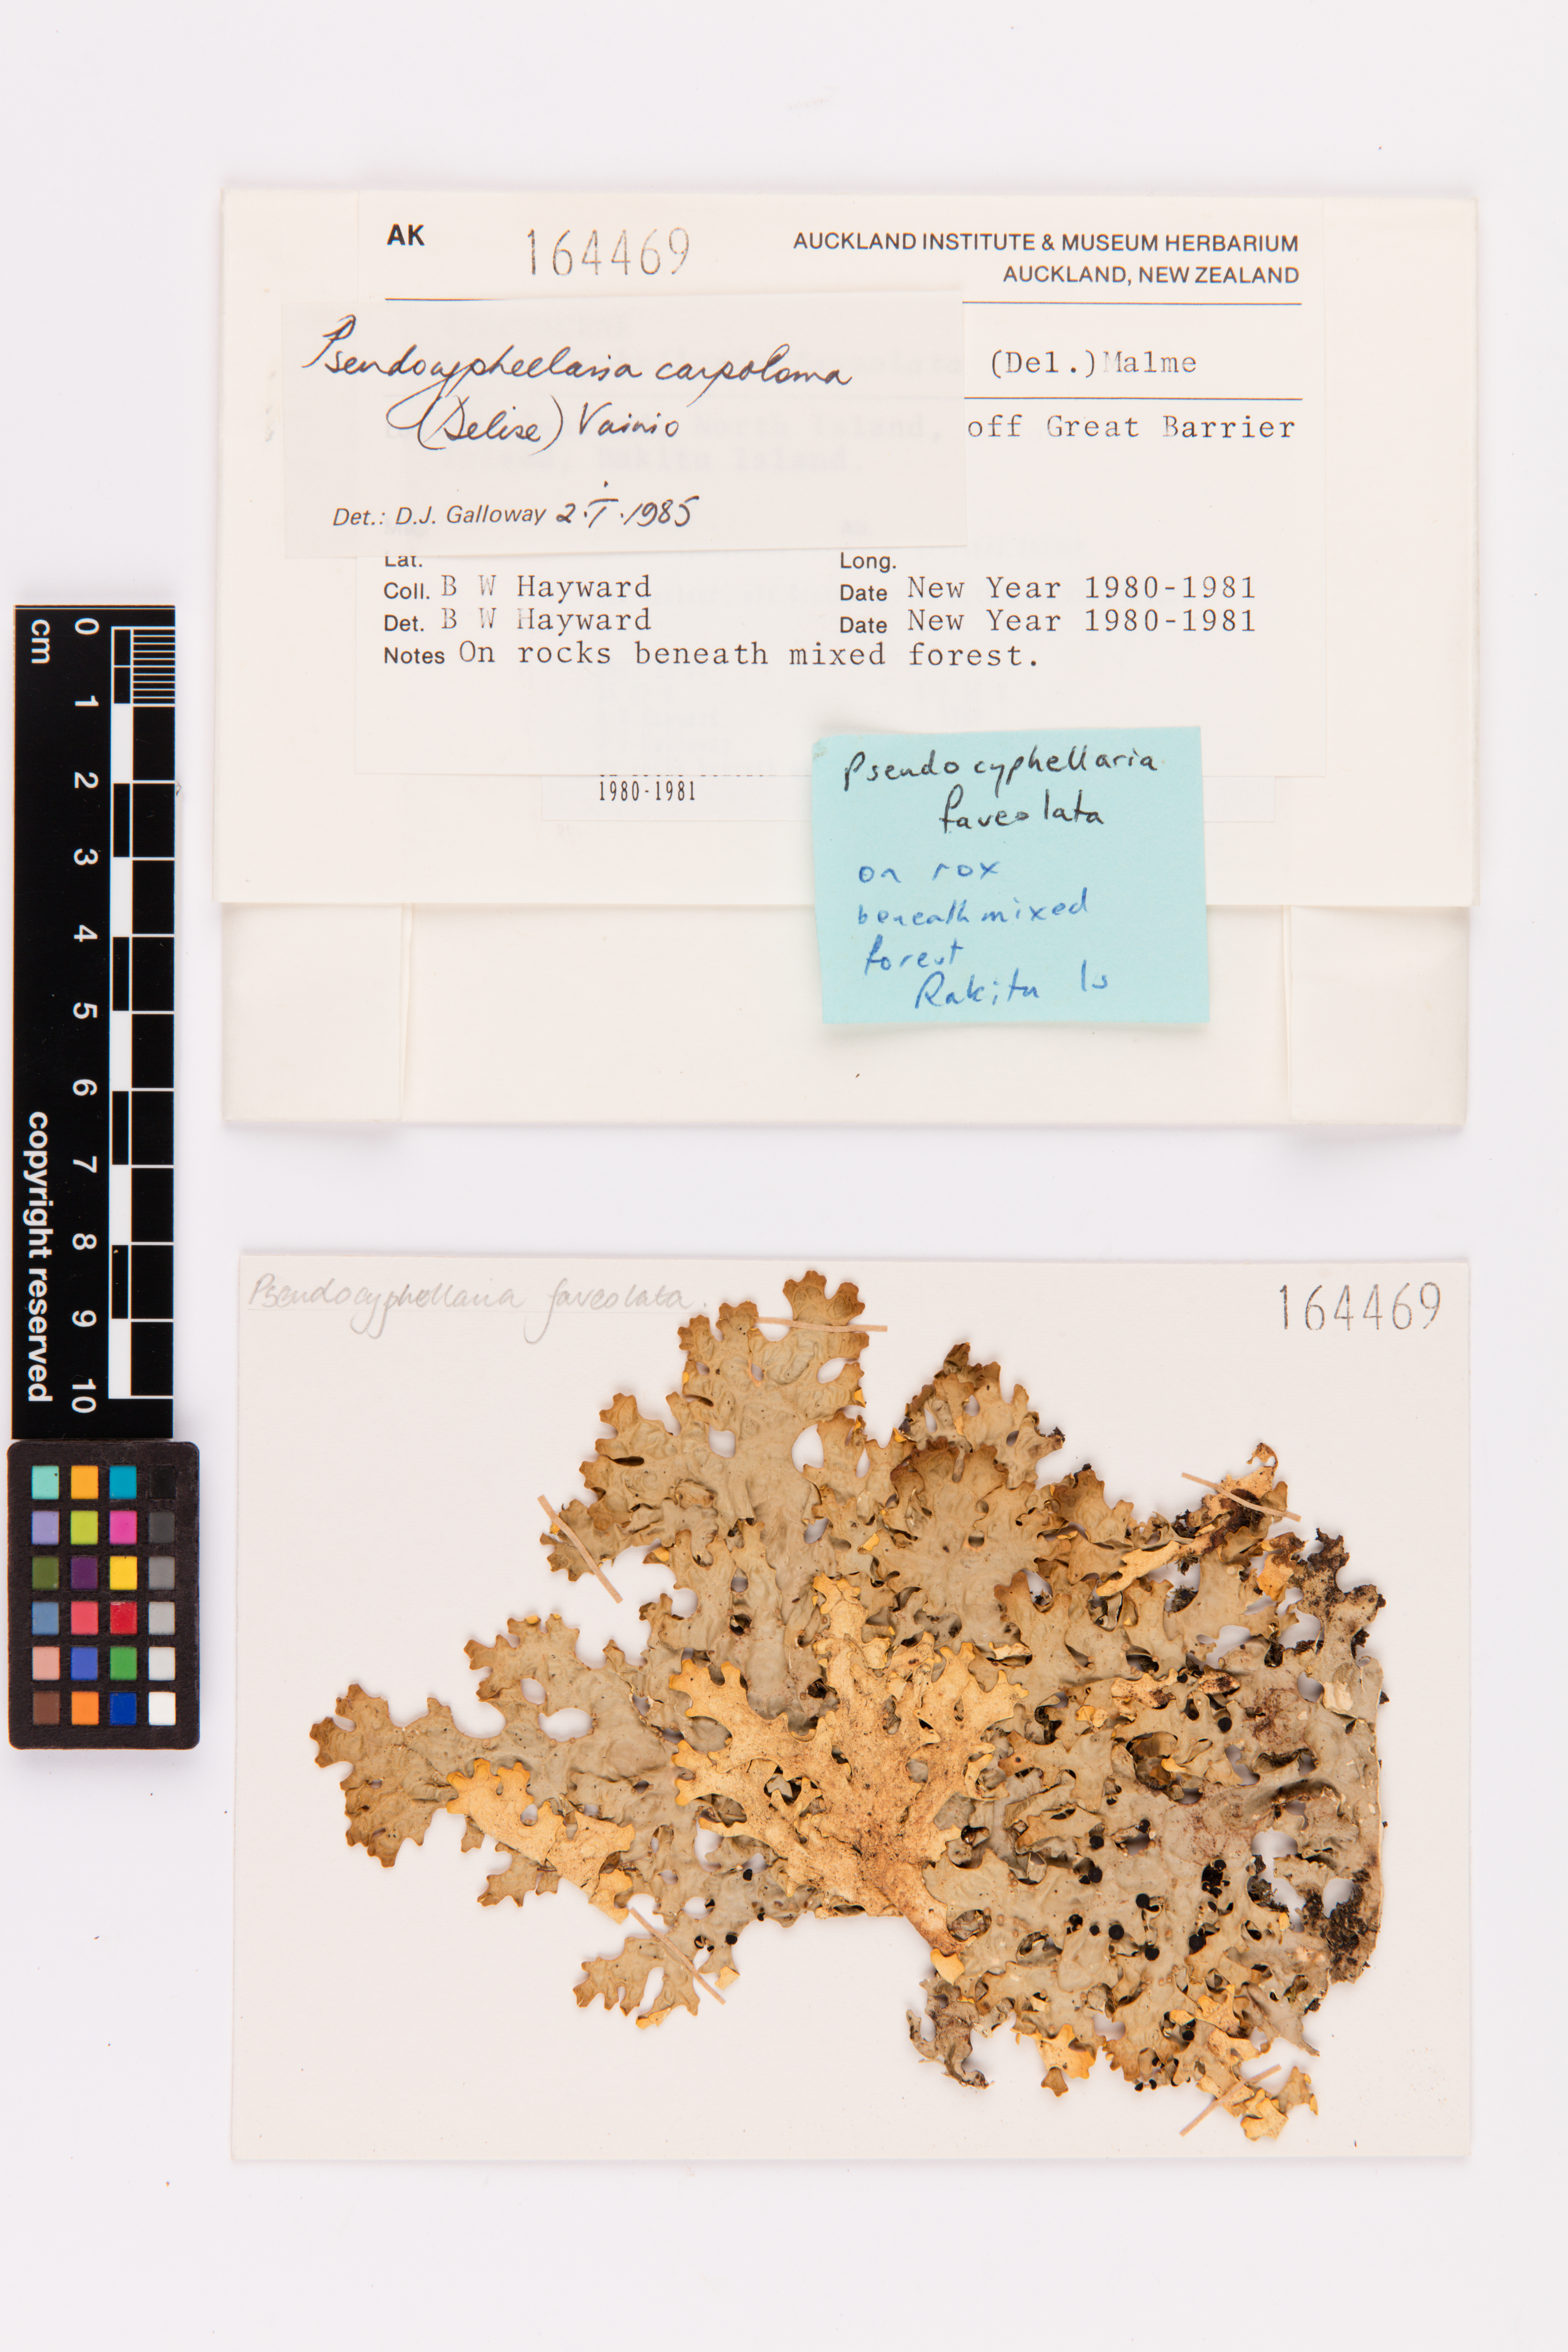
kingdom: Fungi
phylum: Ascomycota
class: Lecanoromycetes
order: Peltigerales
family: Lobariaceae
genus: Pseudocyphellaria
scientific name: Pseudocyphellaria carpoloma
